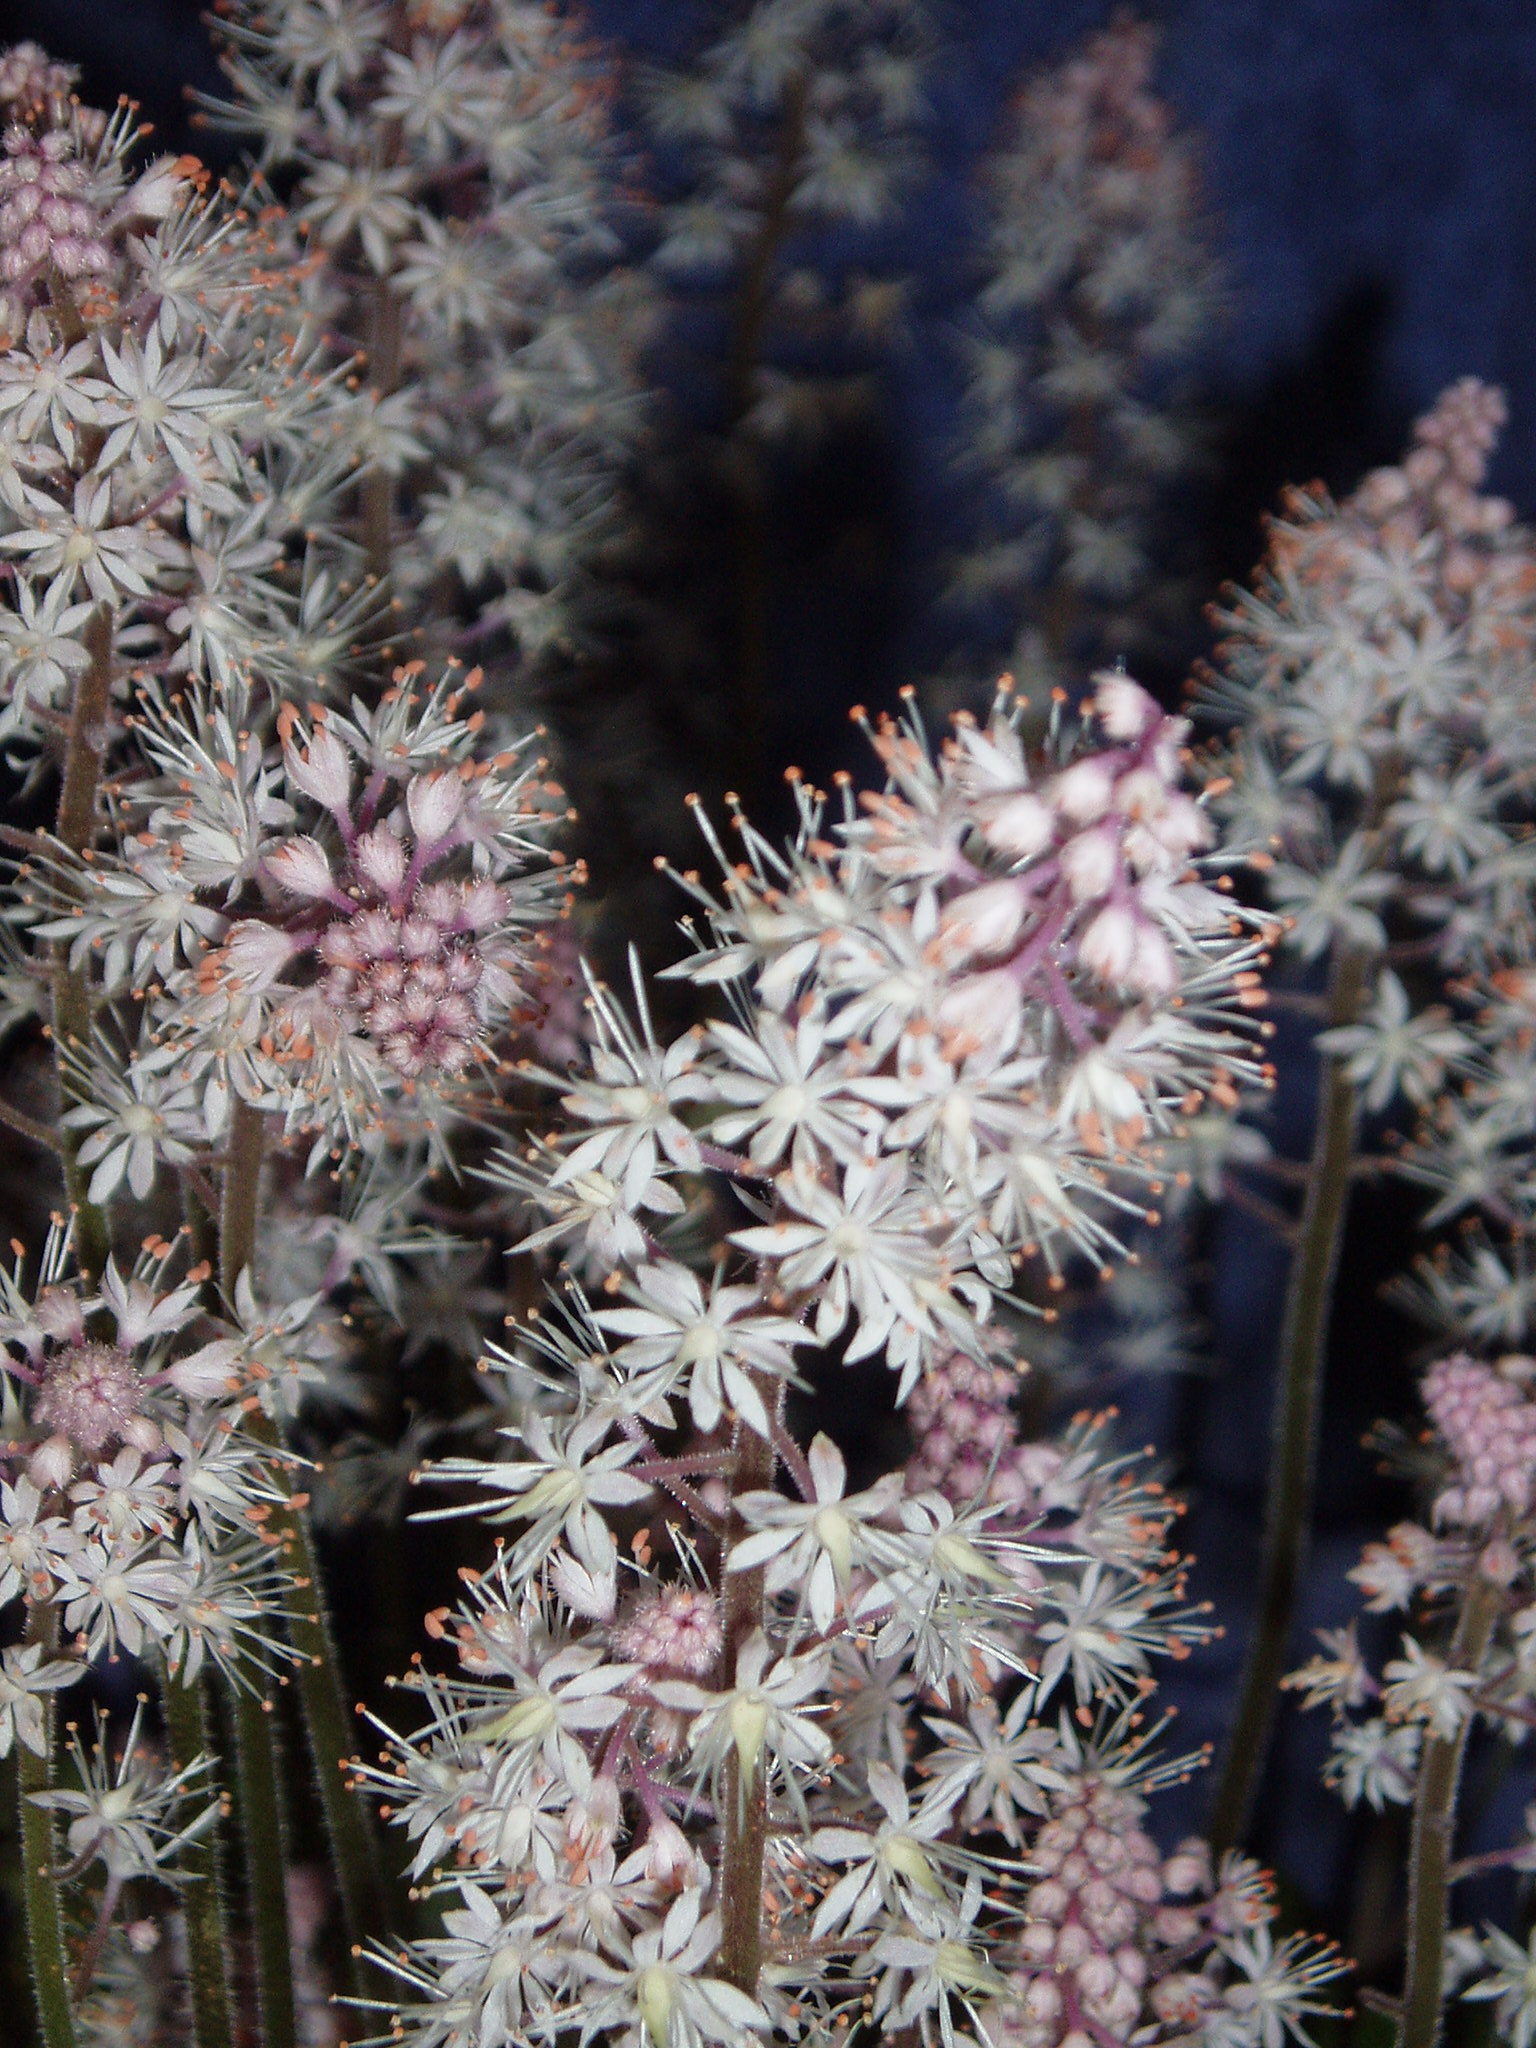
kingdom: Plantae
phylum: Tracheophyta
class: Magnoliopsida
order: Saxifragales
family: Saxifragaceae
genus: Tiarella
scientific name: Tiarella cordifolia
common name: Foamflower
